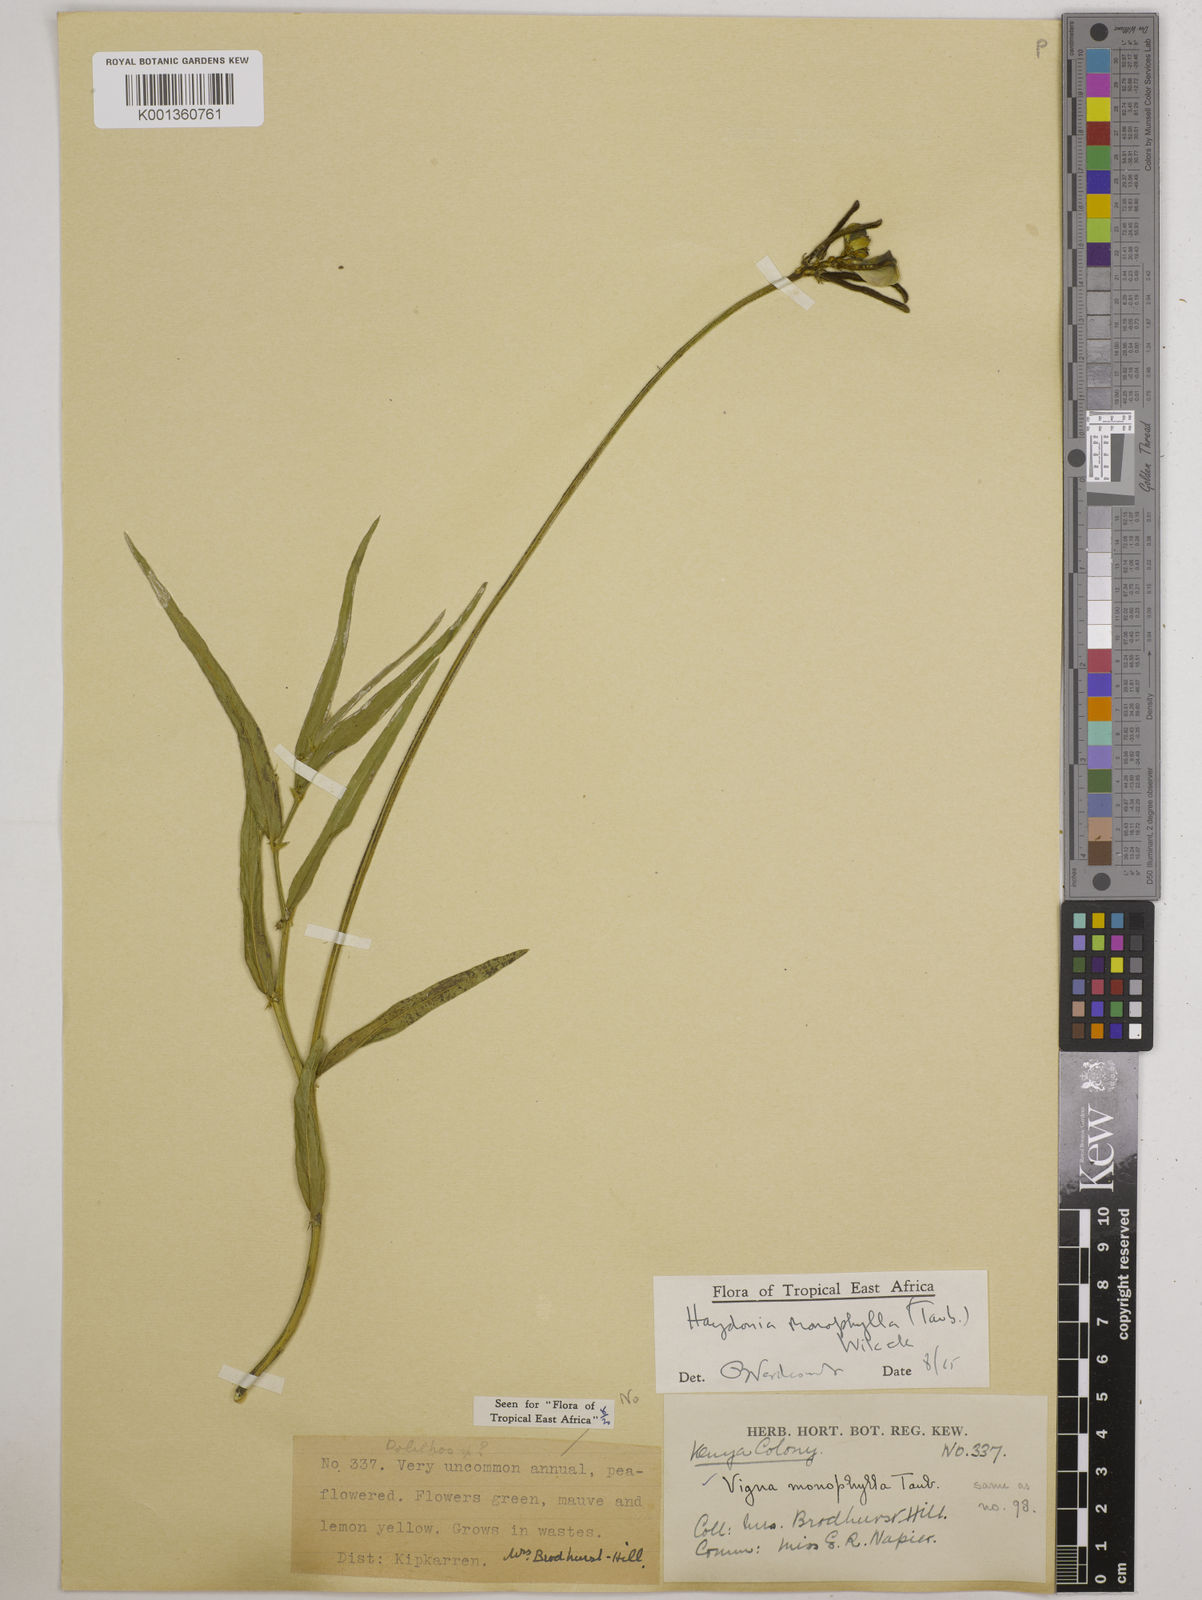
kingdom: Plantae
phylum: Tracheophyta
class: Magnoliopsida
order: Fabales
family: Fabaceae
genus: Vigna
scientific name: Vigna monophylla
